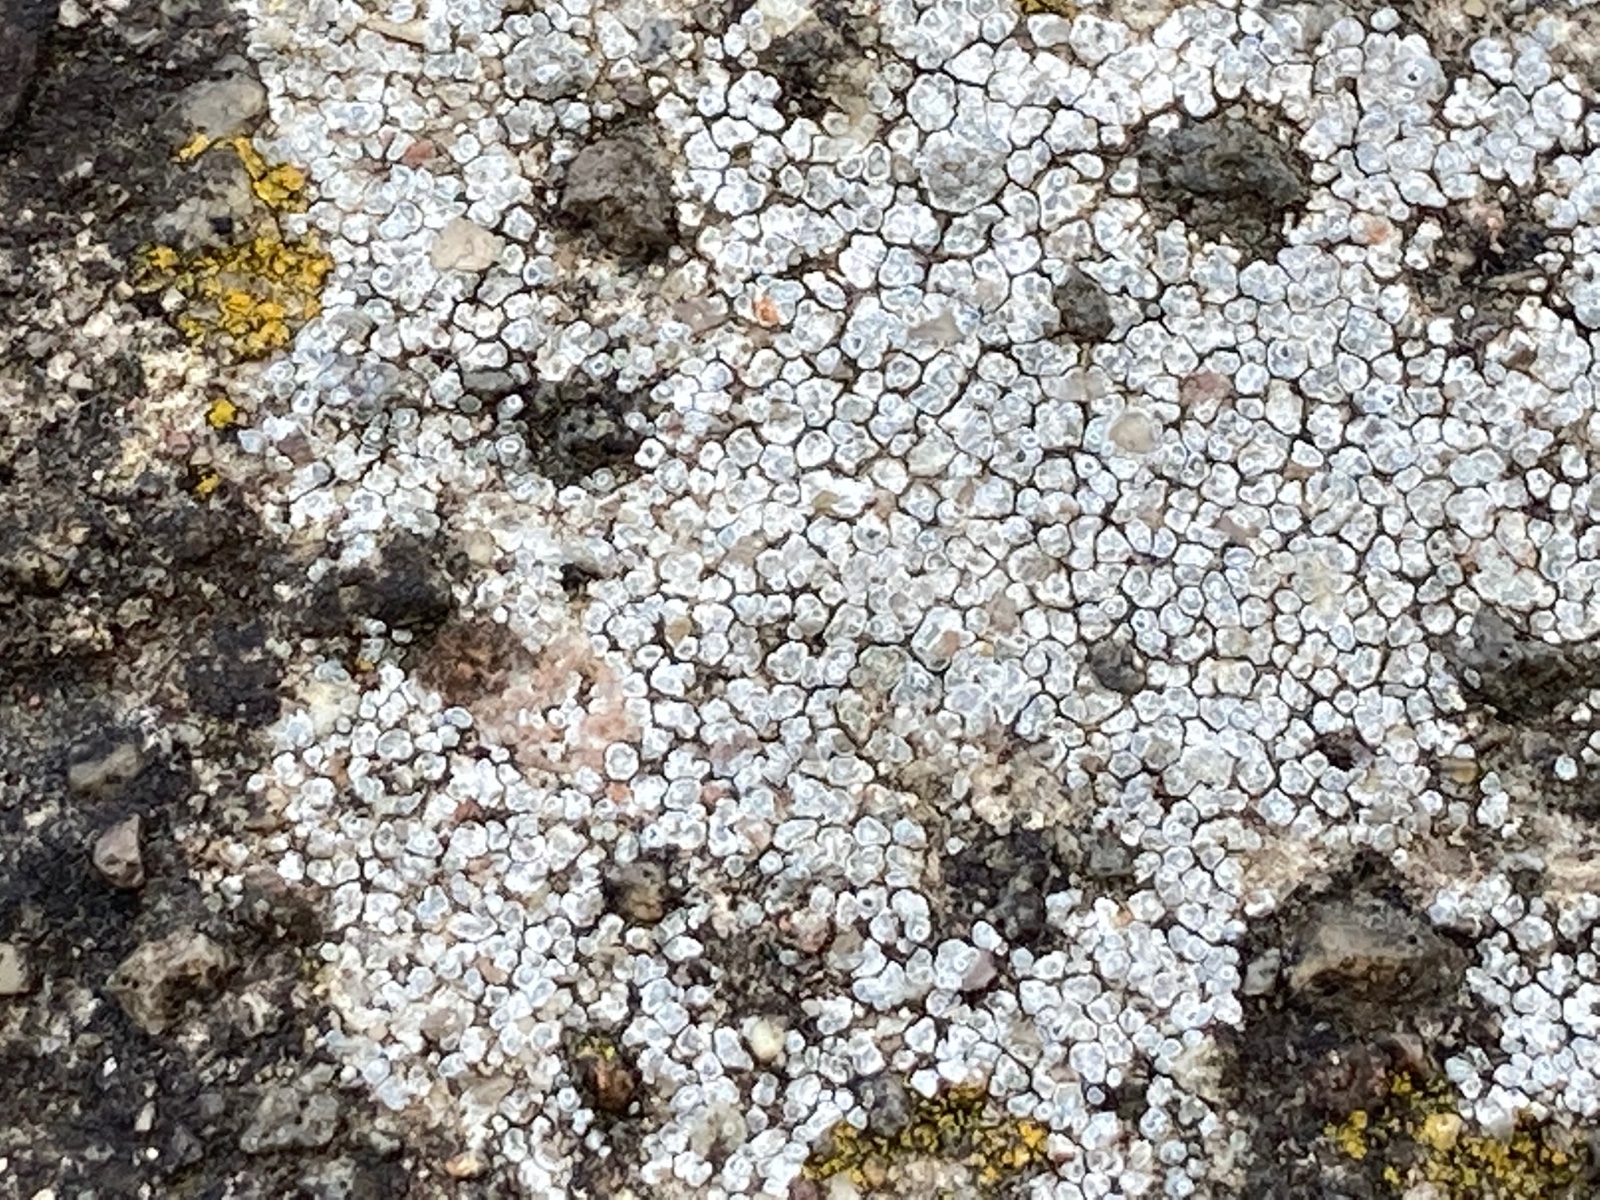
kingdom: Fungi
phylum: Ascomycota
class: Lecanoromycetes
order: Pertusariales
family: Megasporaceae
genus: Circinaria
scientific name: Circinaria contorta
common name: indviklet hulskivelav
